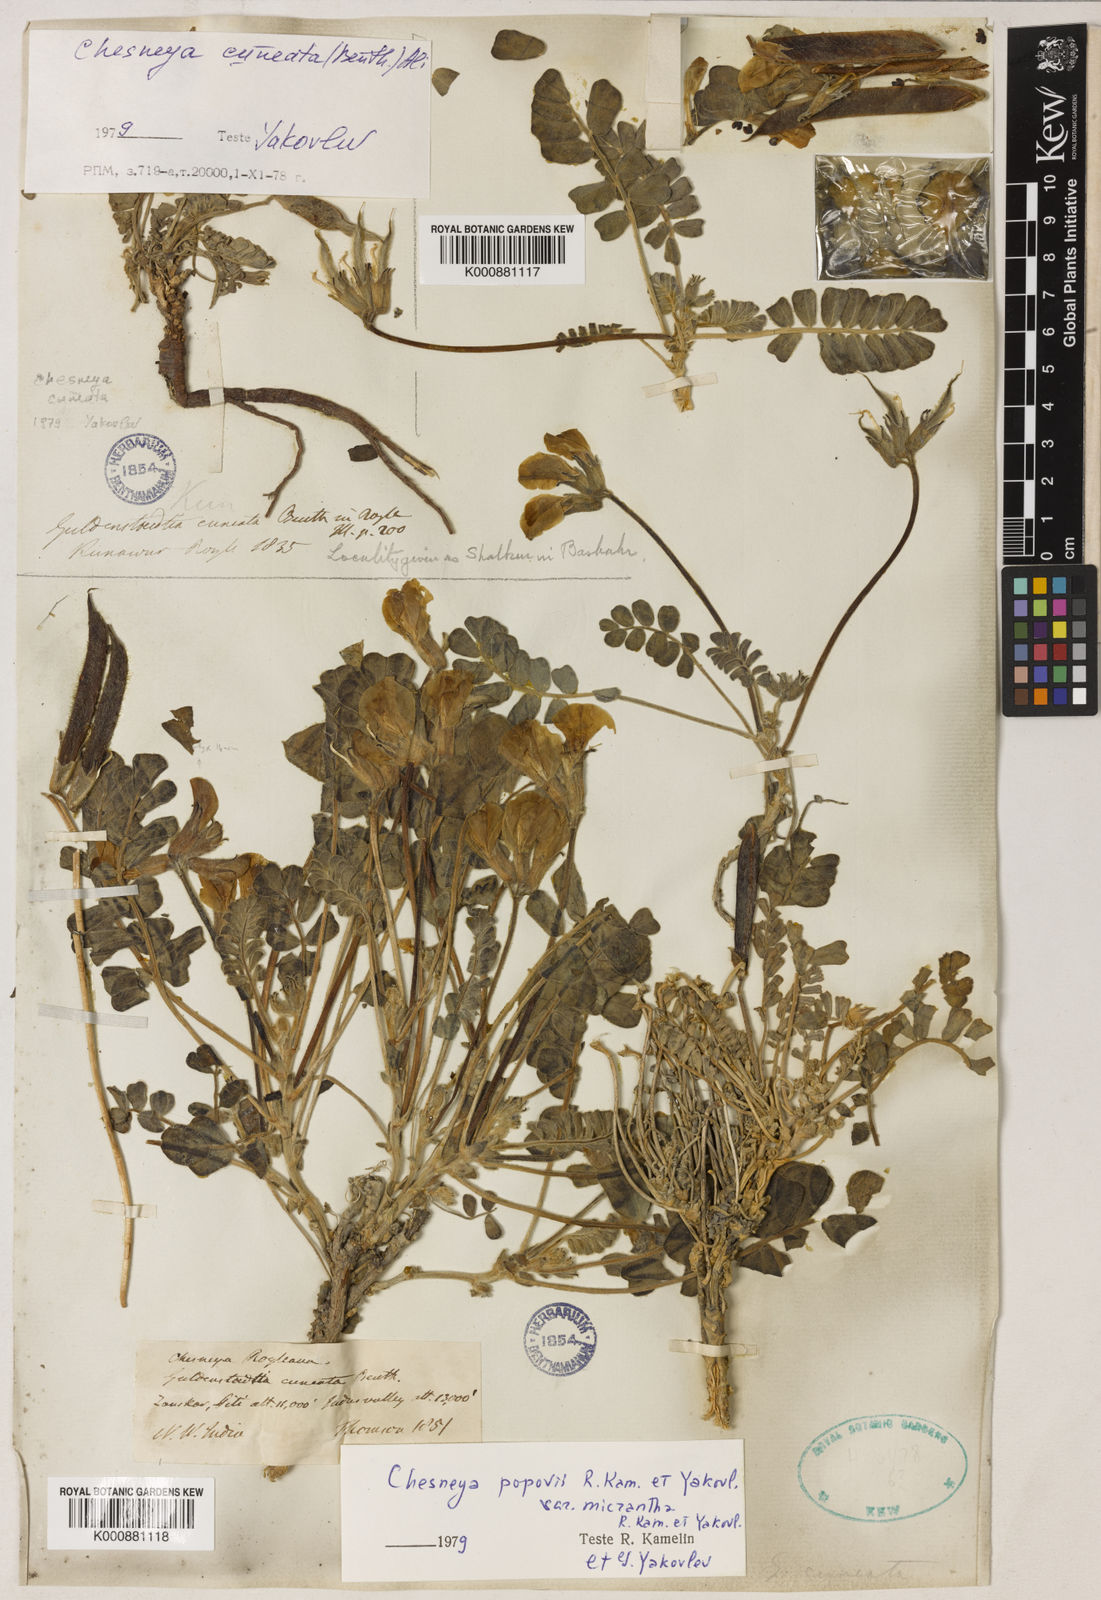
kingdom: Plantae
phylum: Tracheophyta
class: Magnoliopsida
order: Fabales
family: Fabaceae
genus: Chesneya
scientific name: Chesneya cuneata
